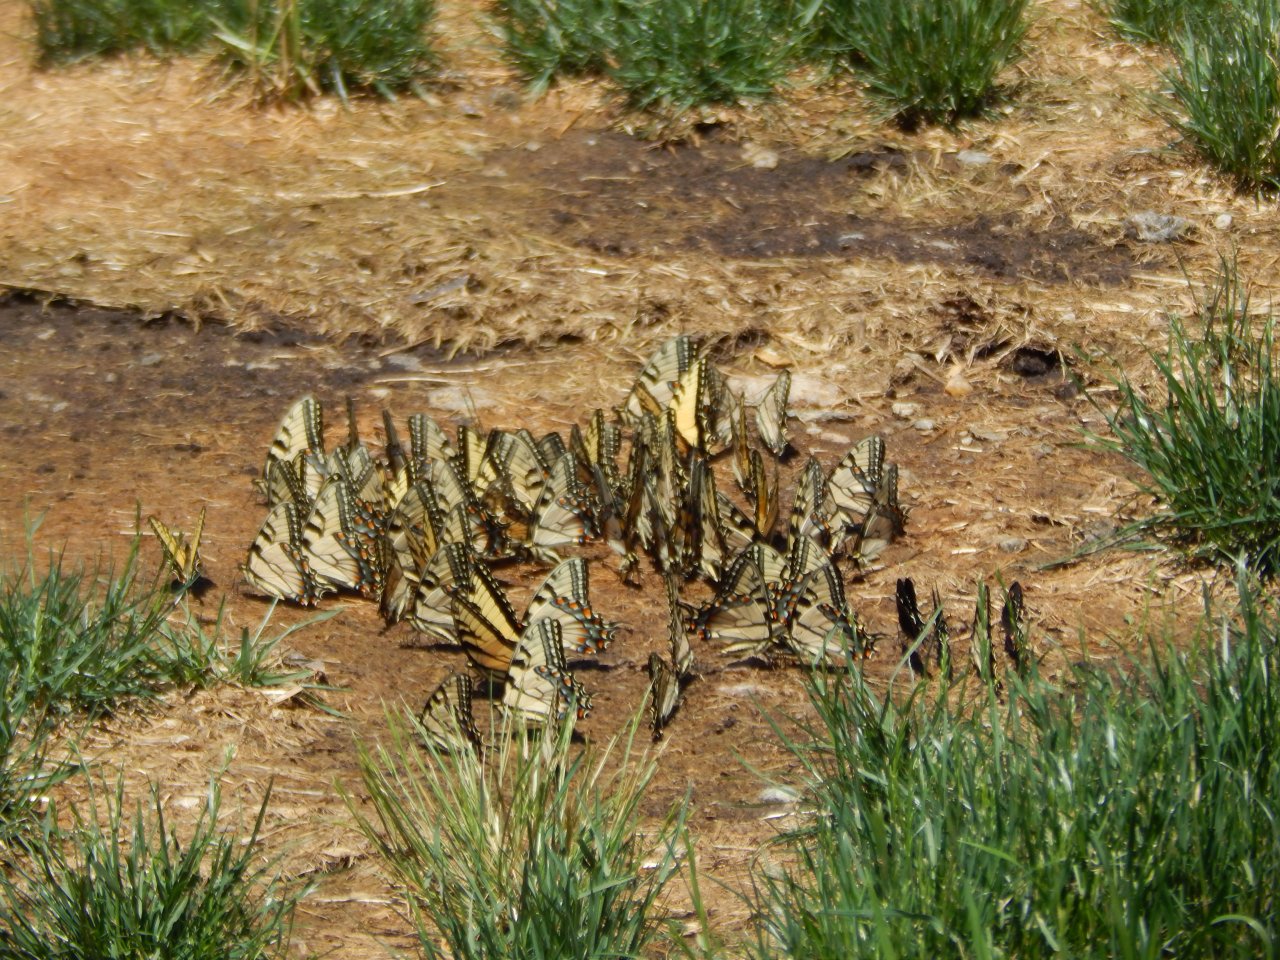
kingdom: Animalia
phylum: Arthropoda
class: Insecta
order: Lepidoptera
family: Papilionidae
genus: Pterourus
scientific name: Pterourus glaucus
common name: Eastern Tiger Swallowtail
